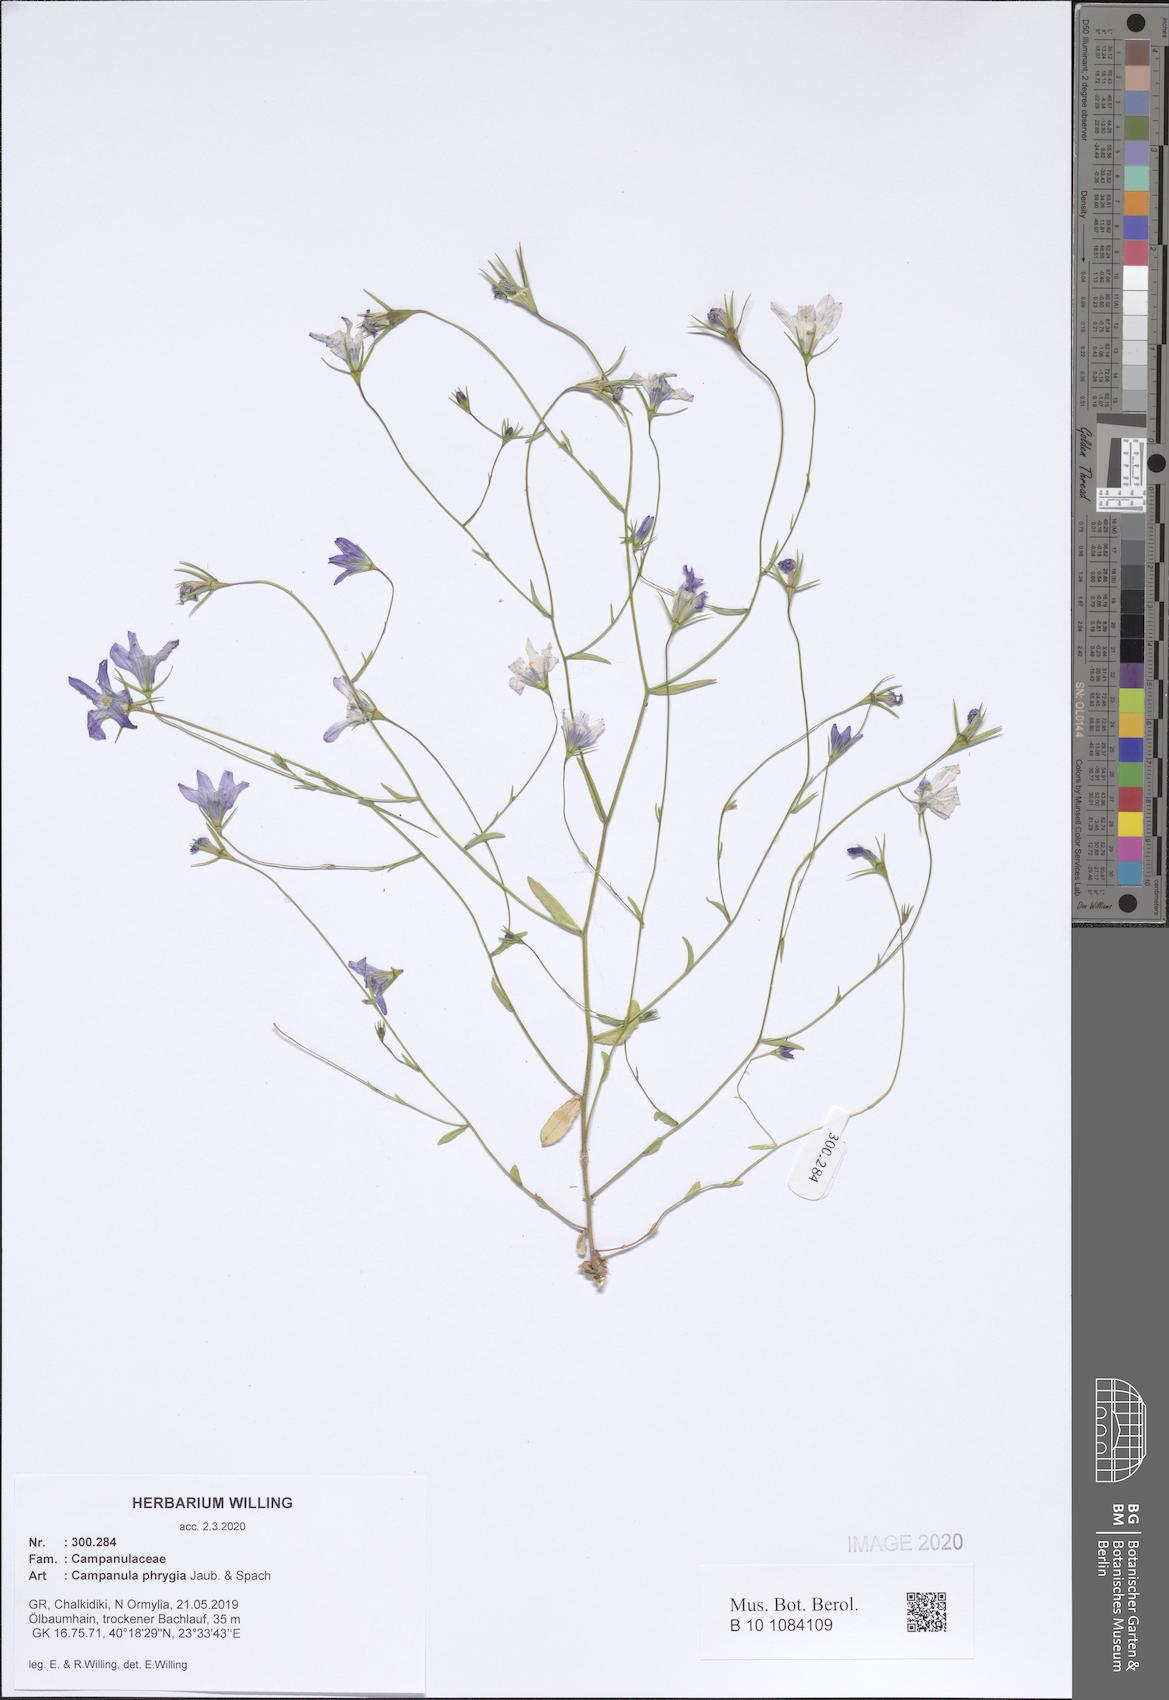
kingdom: Plantae
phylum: Tracheophyta
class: Magnoliopsida
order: Asterales
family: Campanulaceae
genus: Campanula
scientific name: Campanula phrygia
